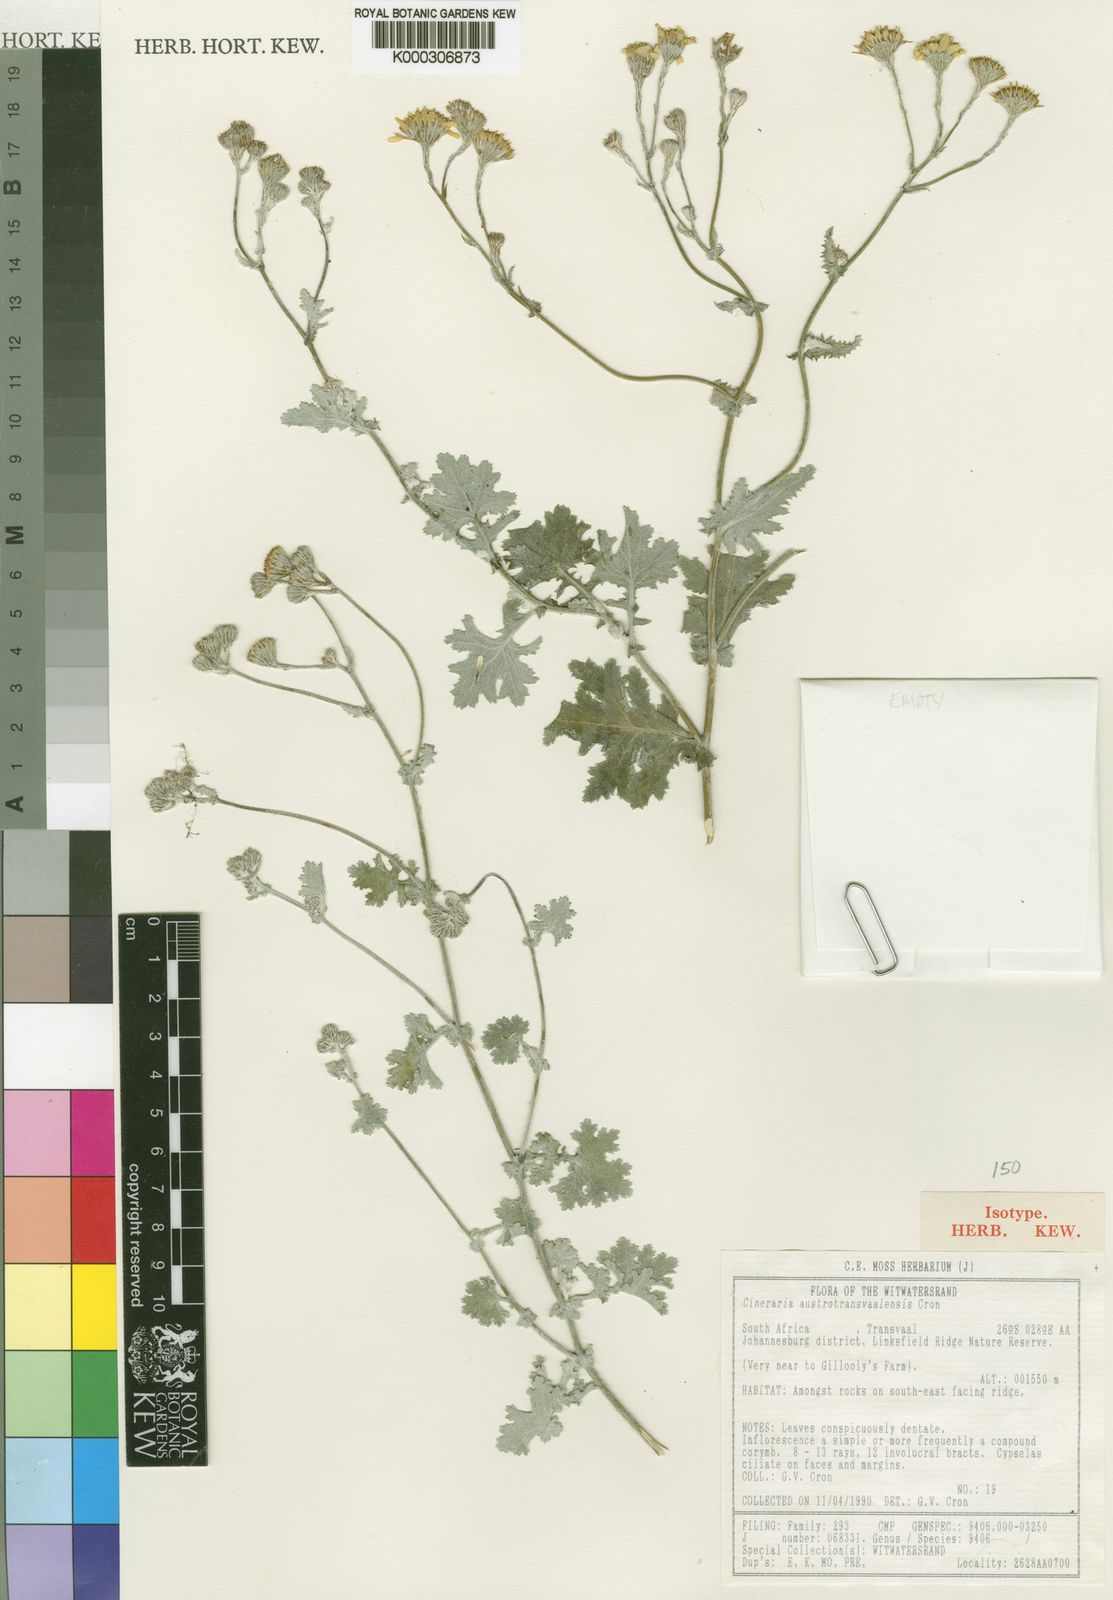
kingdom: Plantae
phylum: Tracheophyta
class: Magnoliopsida
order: Asterales
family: Asteraceae
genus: Cineraria
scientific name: Cineraria austrotransvaalensis
